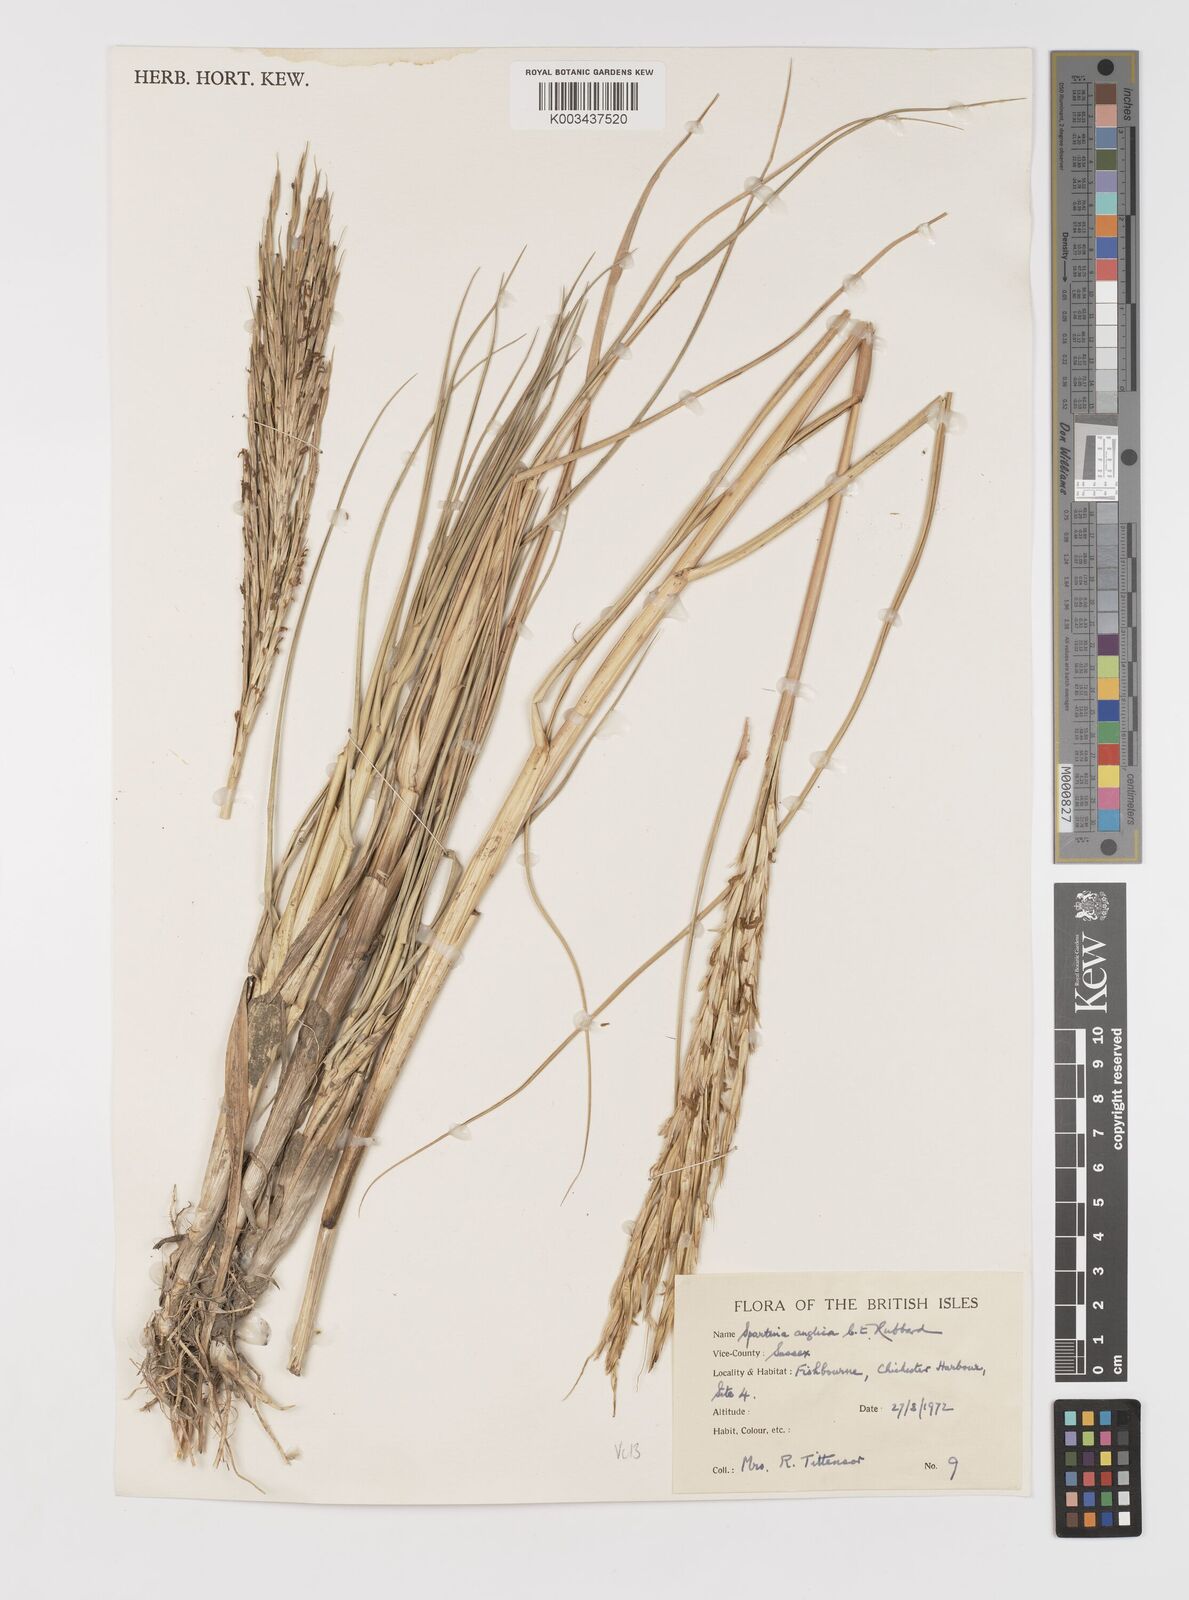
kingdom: Plantae
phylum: Tracheophyta
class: Liliopsida
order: Poales
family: Poaceae
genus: Sporobolus
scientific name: Sporobolus anglicus
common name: English cordgrass
